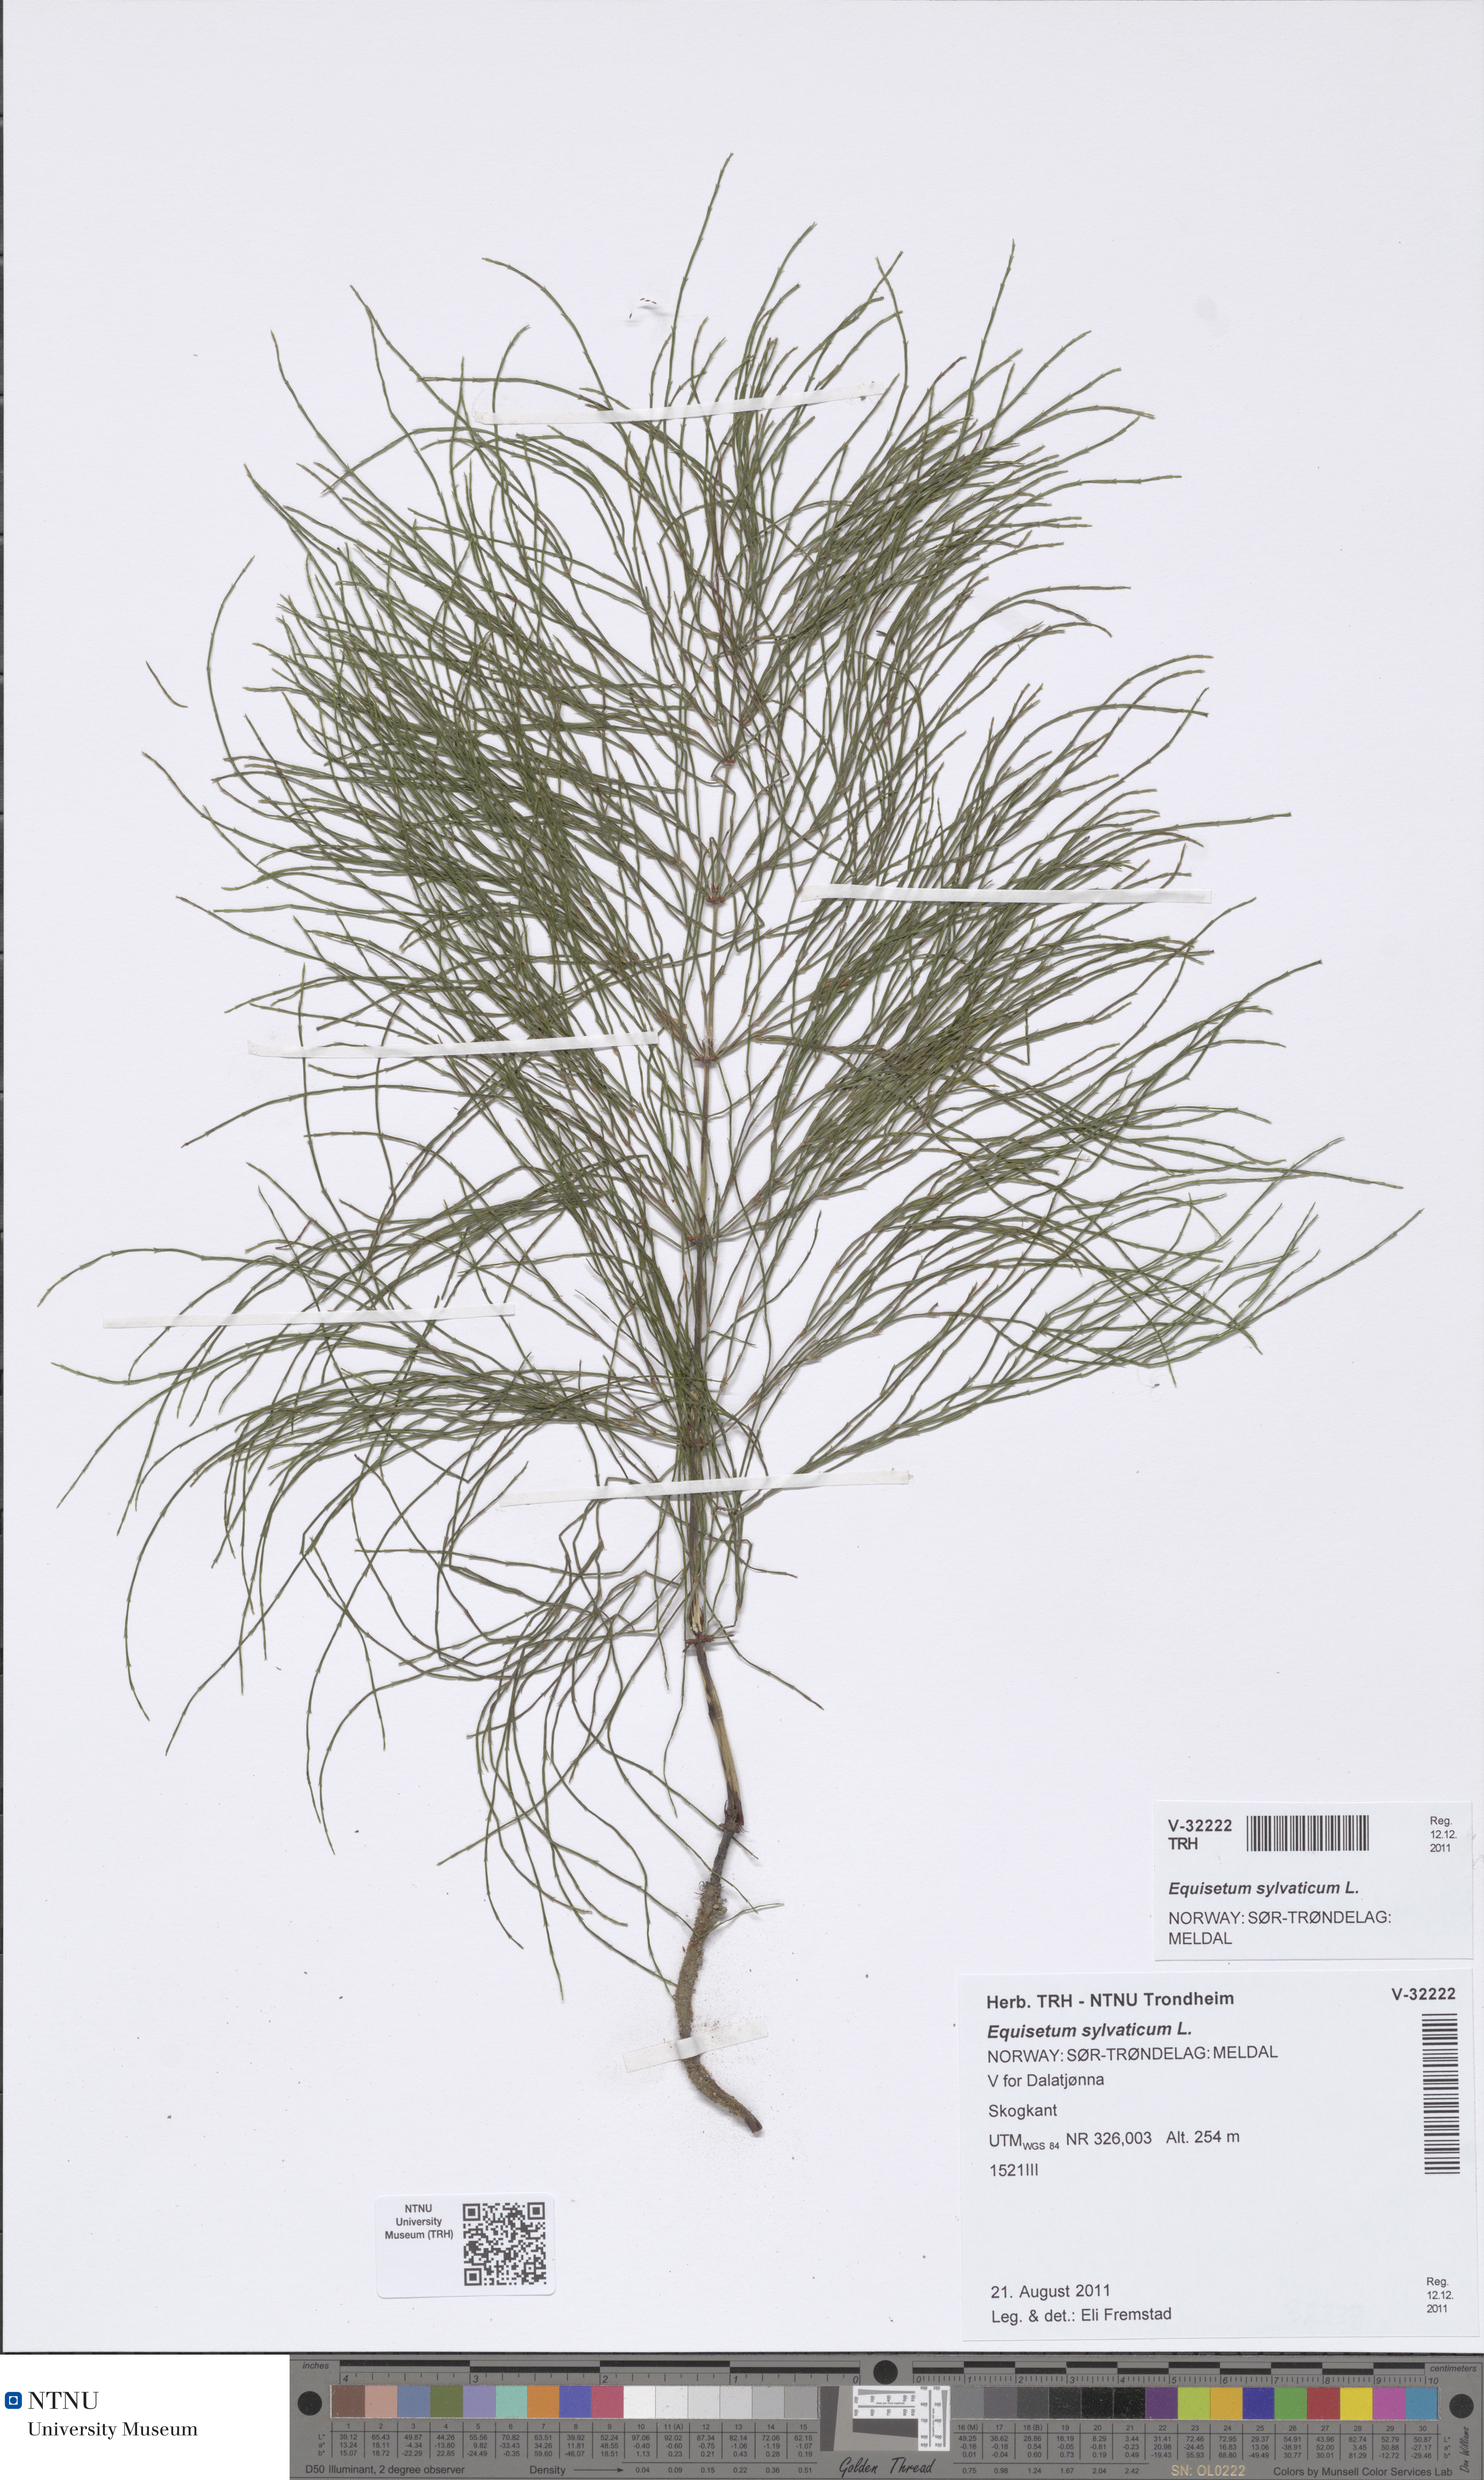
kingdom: Plantae
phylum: Tracheophyta
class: Polypodiopsida
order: Equisetales
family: Equisetaceae
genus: Equisetum
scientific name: Equisetum sylvaticum
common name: Wood horsetail
